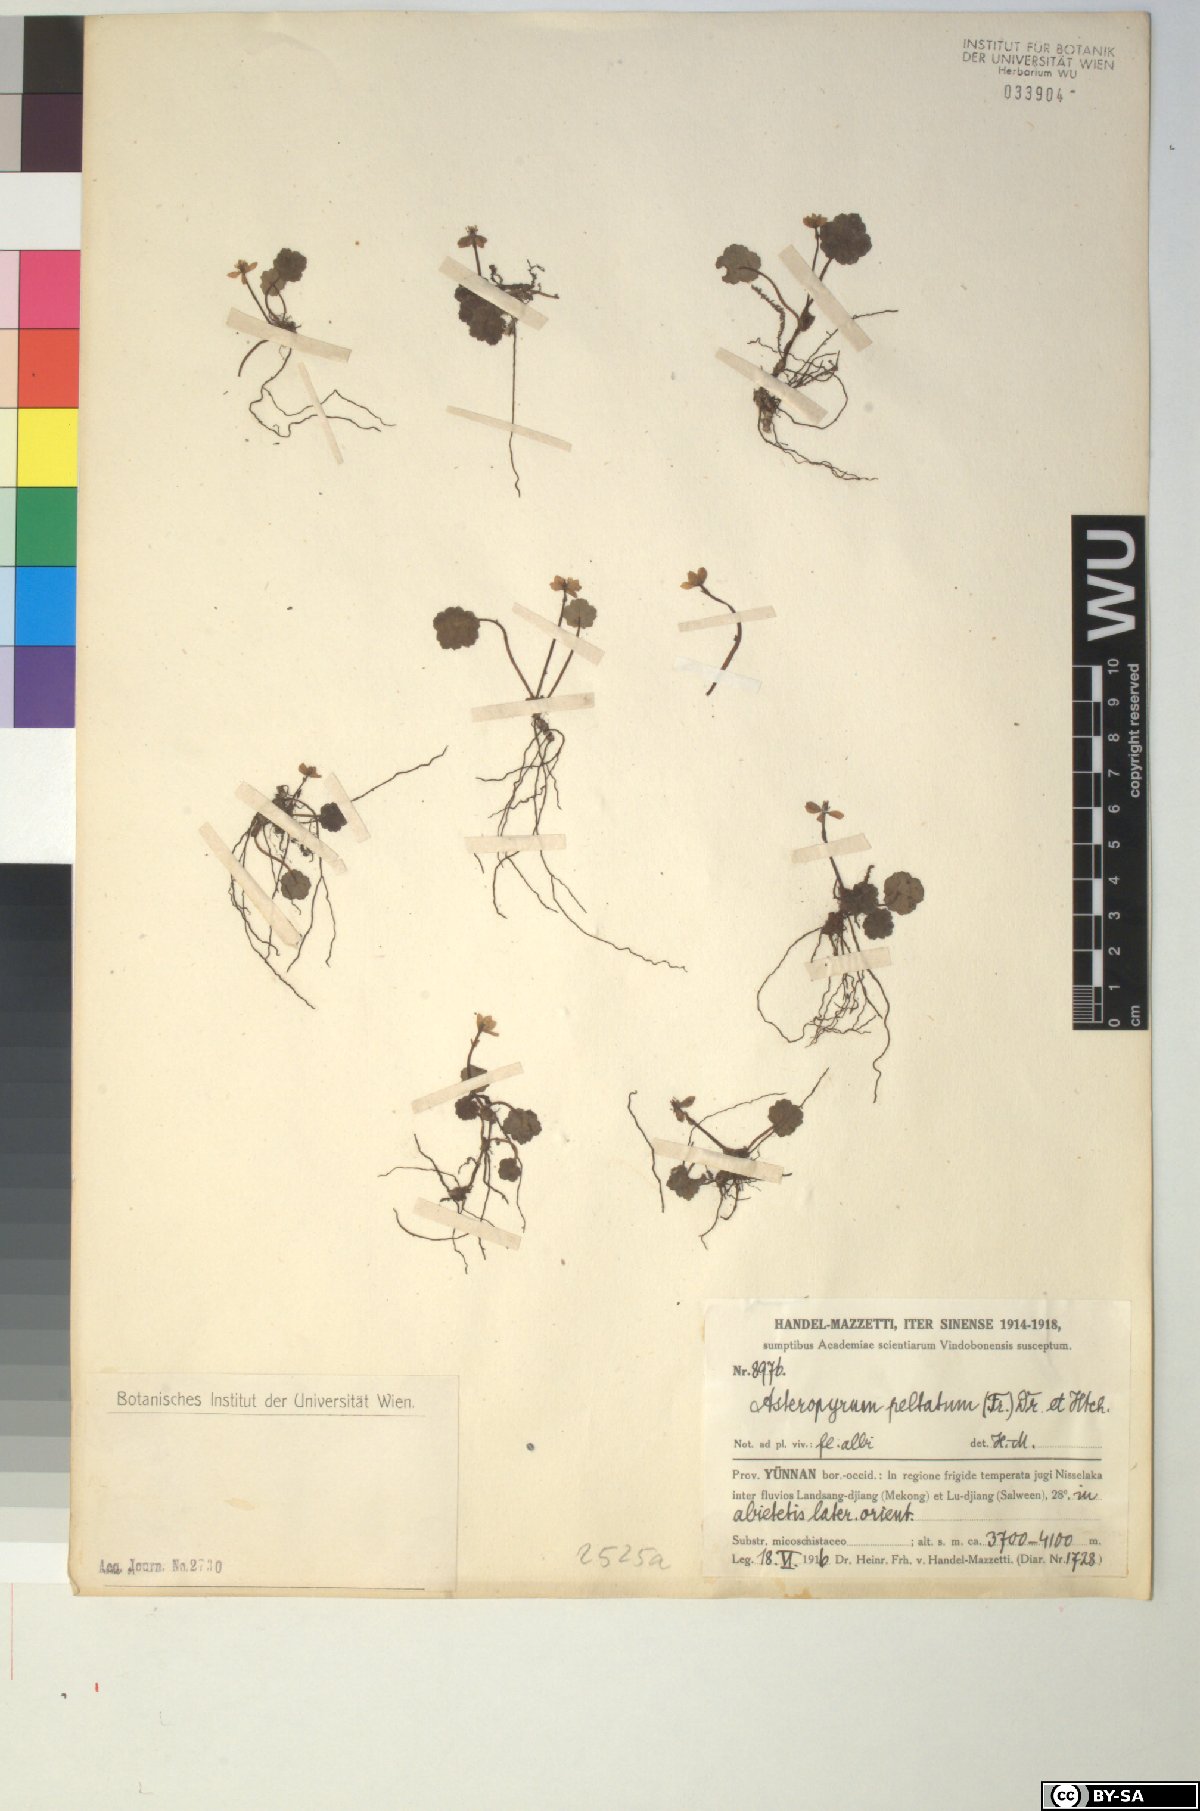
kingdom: Plantae
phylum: Tracheophyta
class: Magnoliopsida
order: Ranunculales
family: Ranunculaceae
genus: Asteropyrum
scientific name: Asteropyrum peltatum
